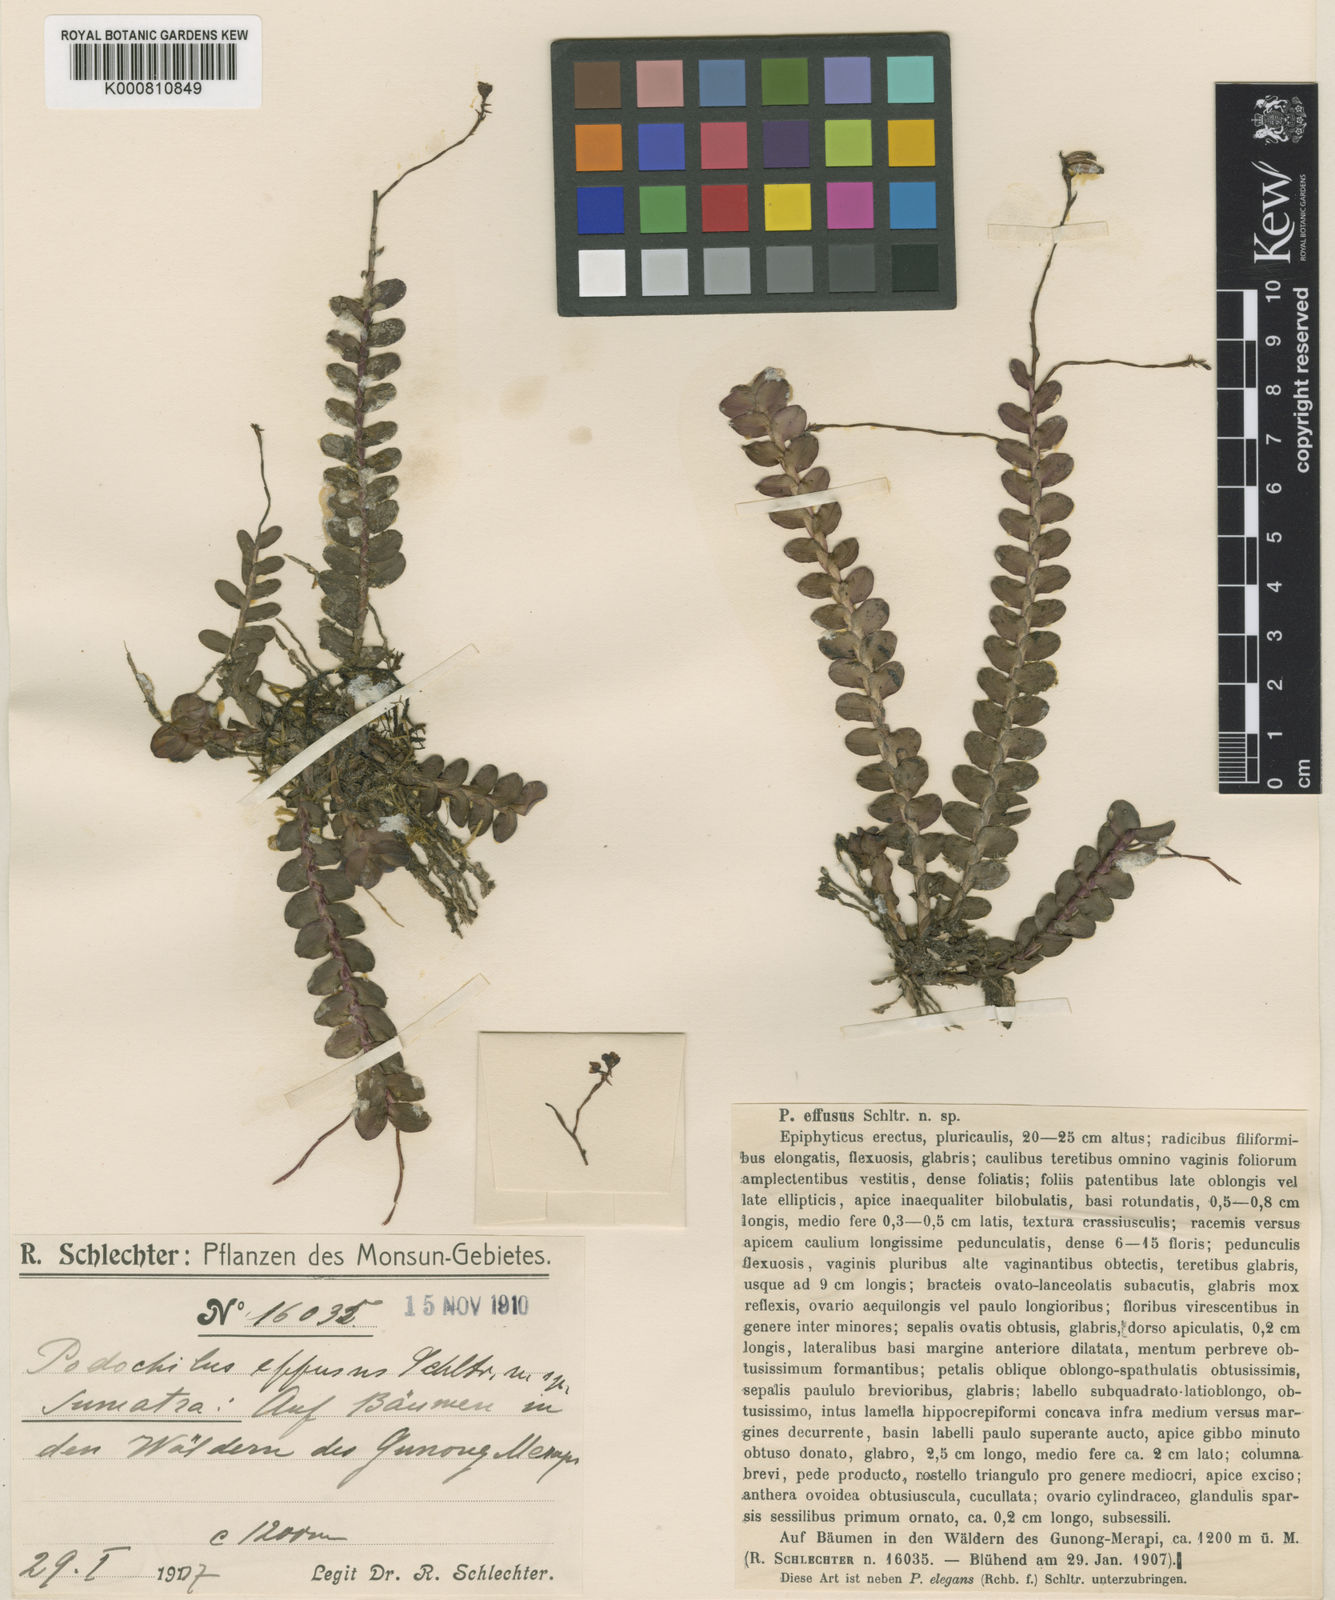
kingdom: Plantae
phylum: Tracheophyta
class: Liliopsida
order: Asparagales
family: Orchidaceae
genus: Appendicula
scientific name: Appendicula effusa
